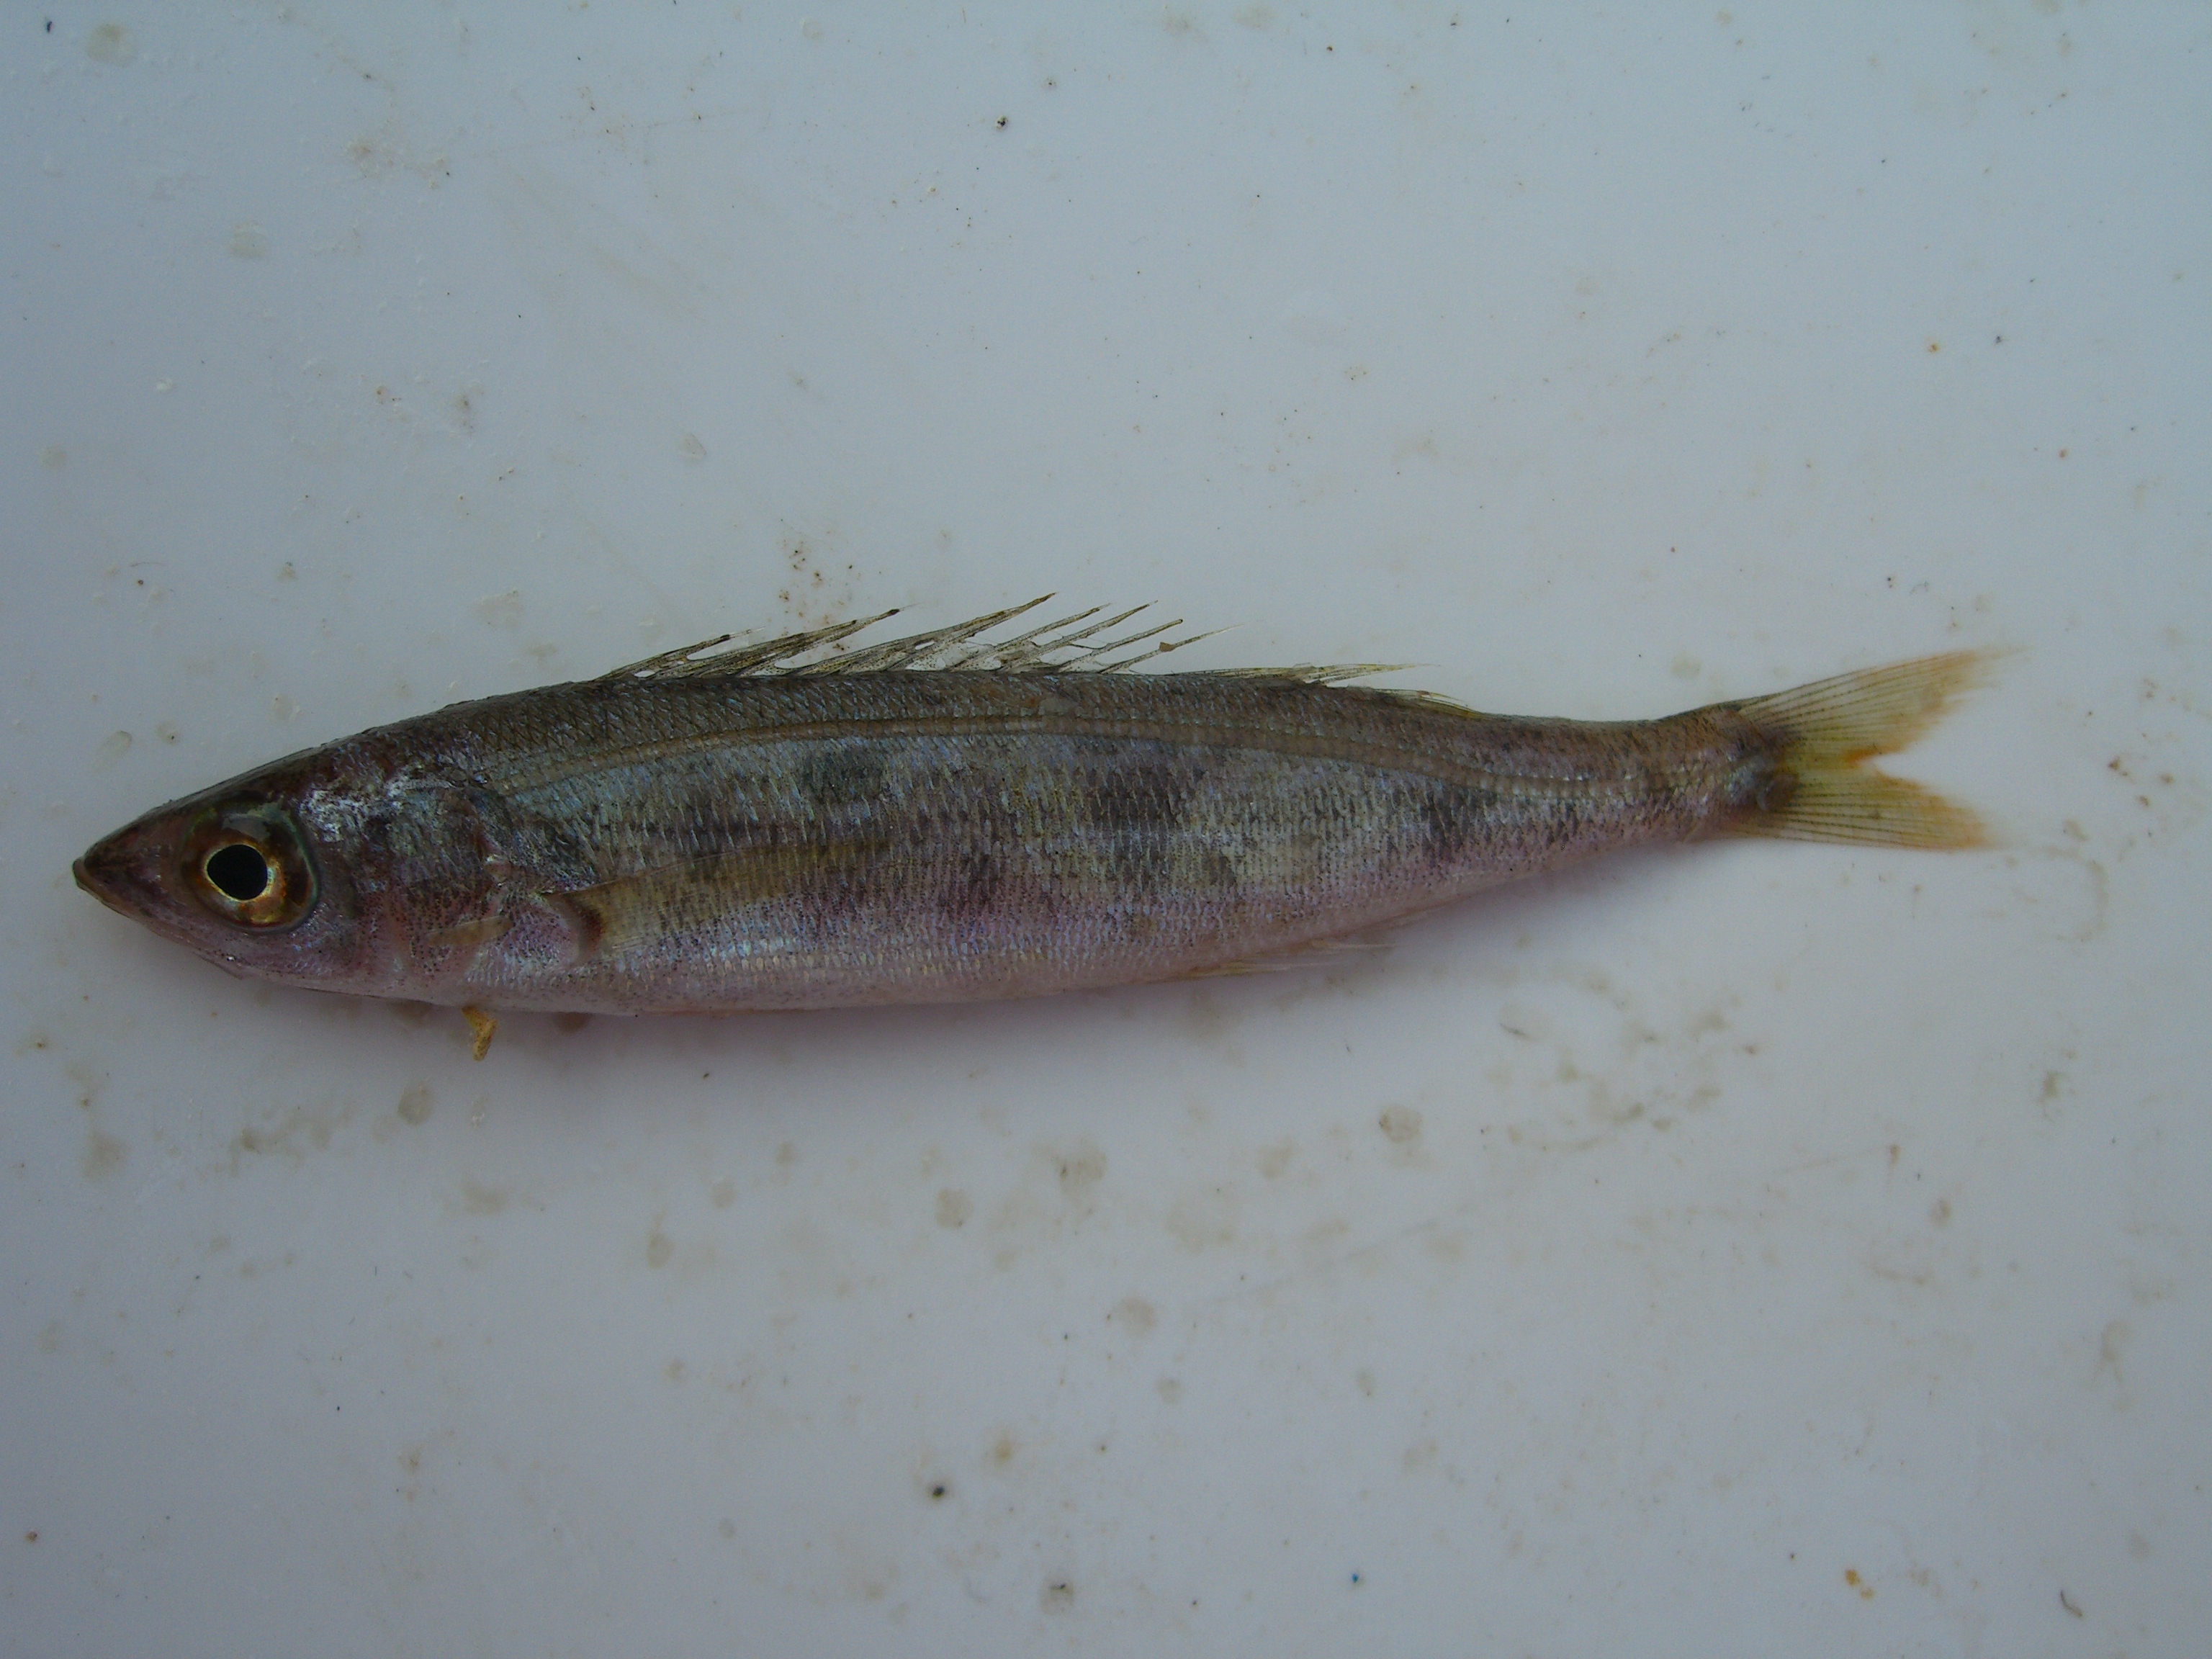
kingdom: Animalia
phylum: Chordata
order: Perciformes
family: Sparidae
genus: Spicara
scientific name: Spicara smaris
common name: Picarel
